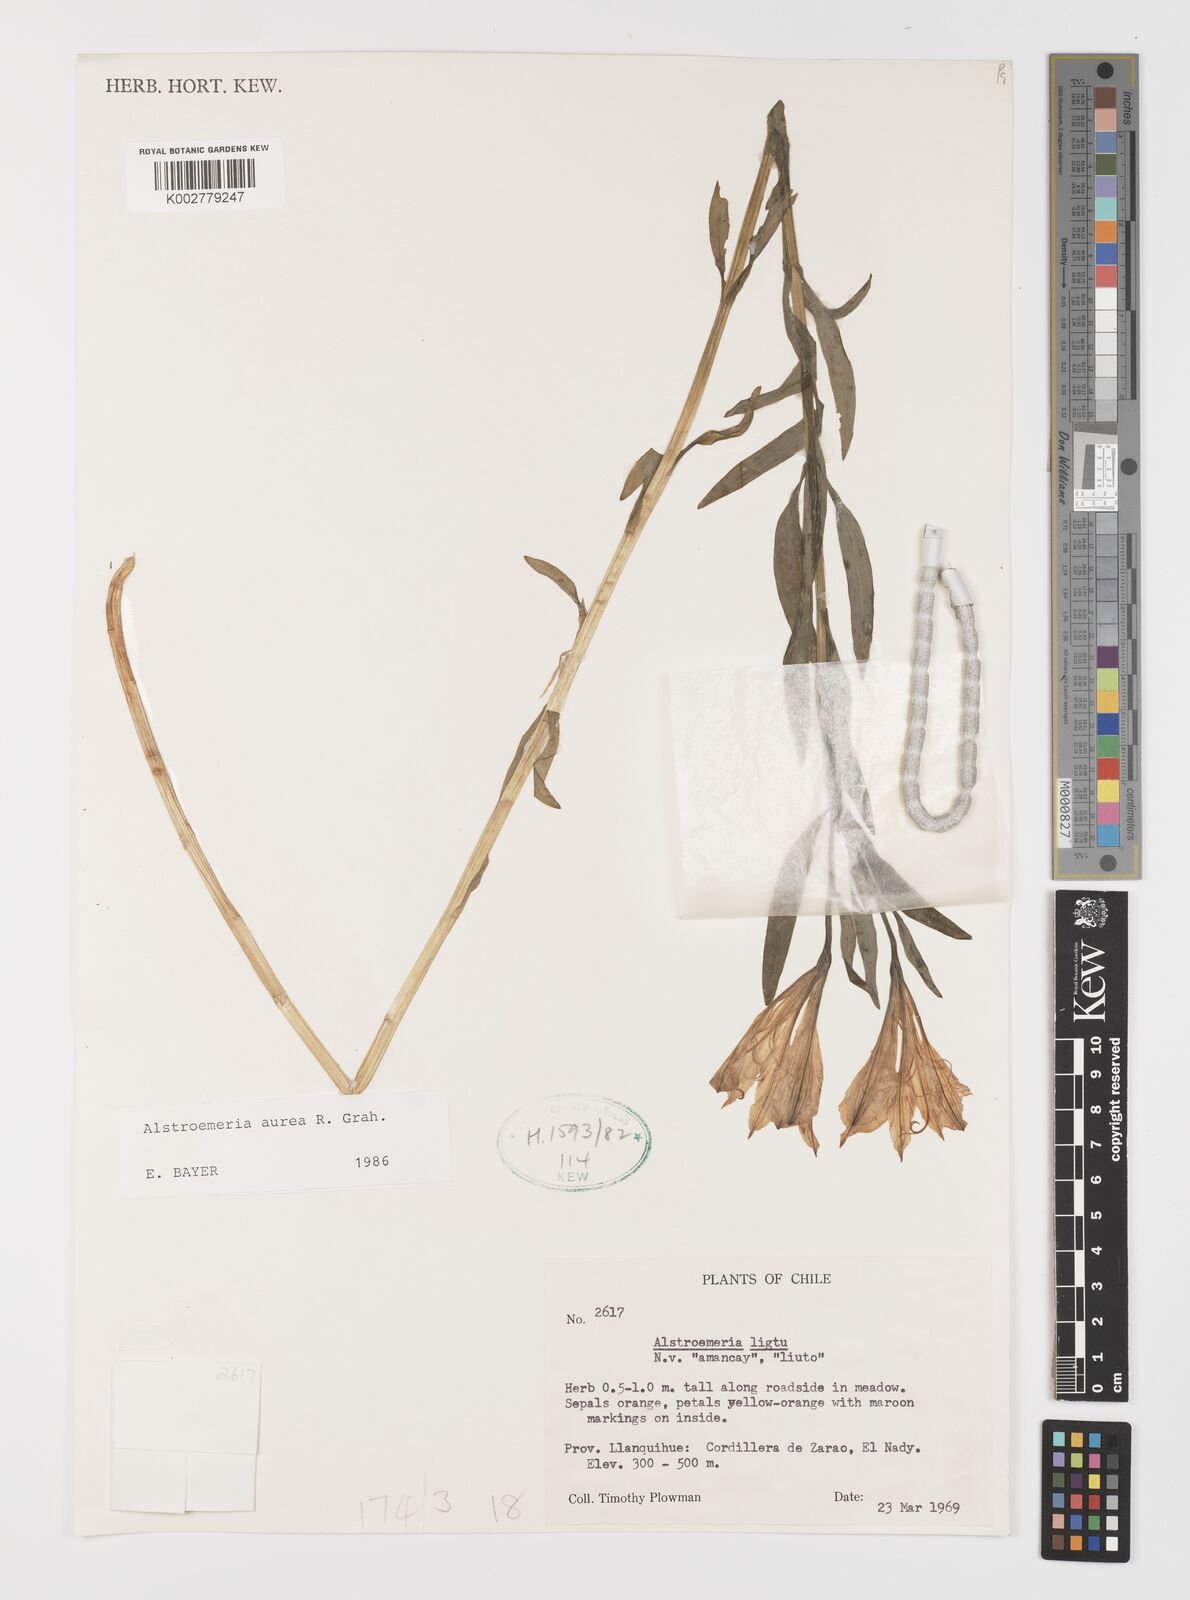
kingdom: Plantae
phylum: Tracheophyta
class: Liliopsida
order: Liliales
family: Alstroemeriaceae
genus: Alstroemeria
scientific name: Alstroemeria aurea
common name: Peruvian lily
